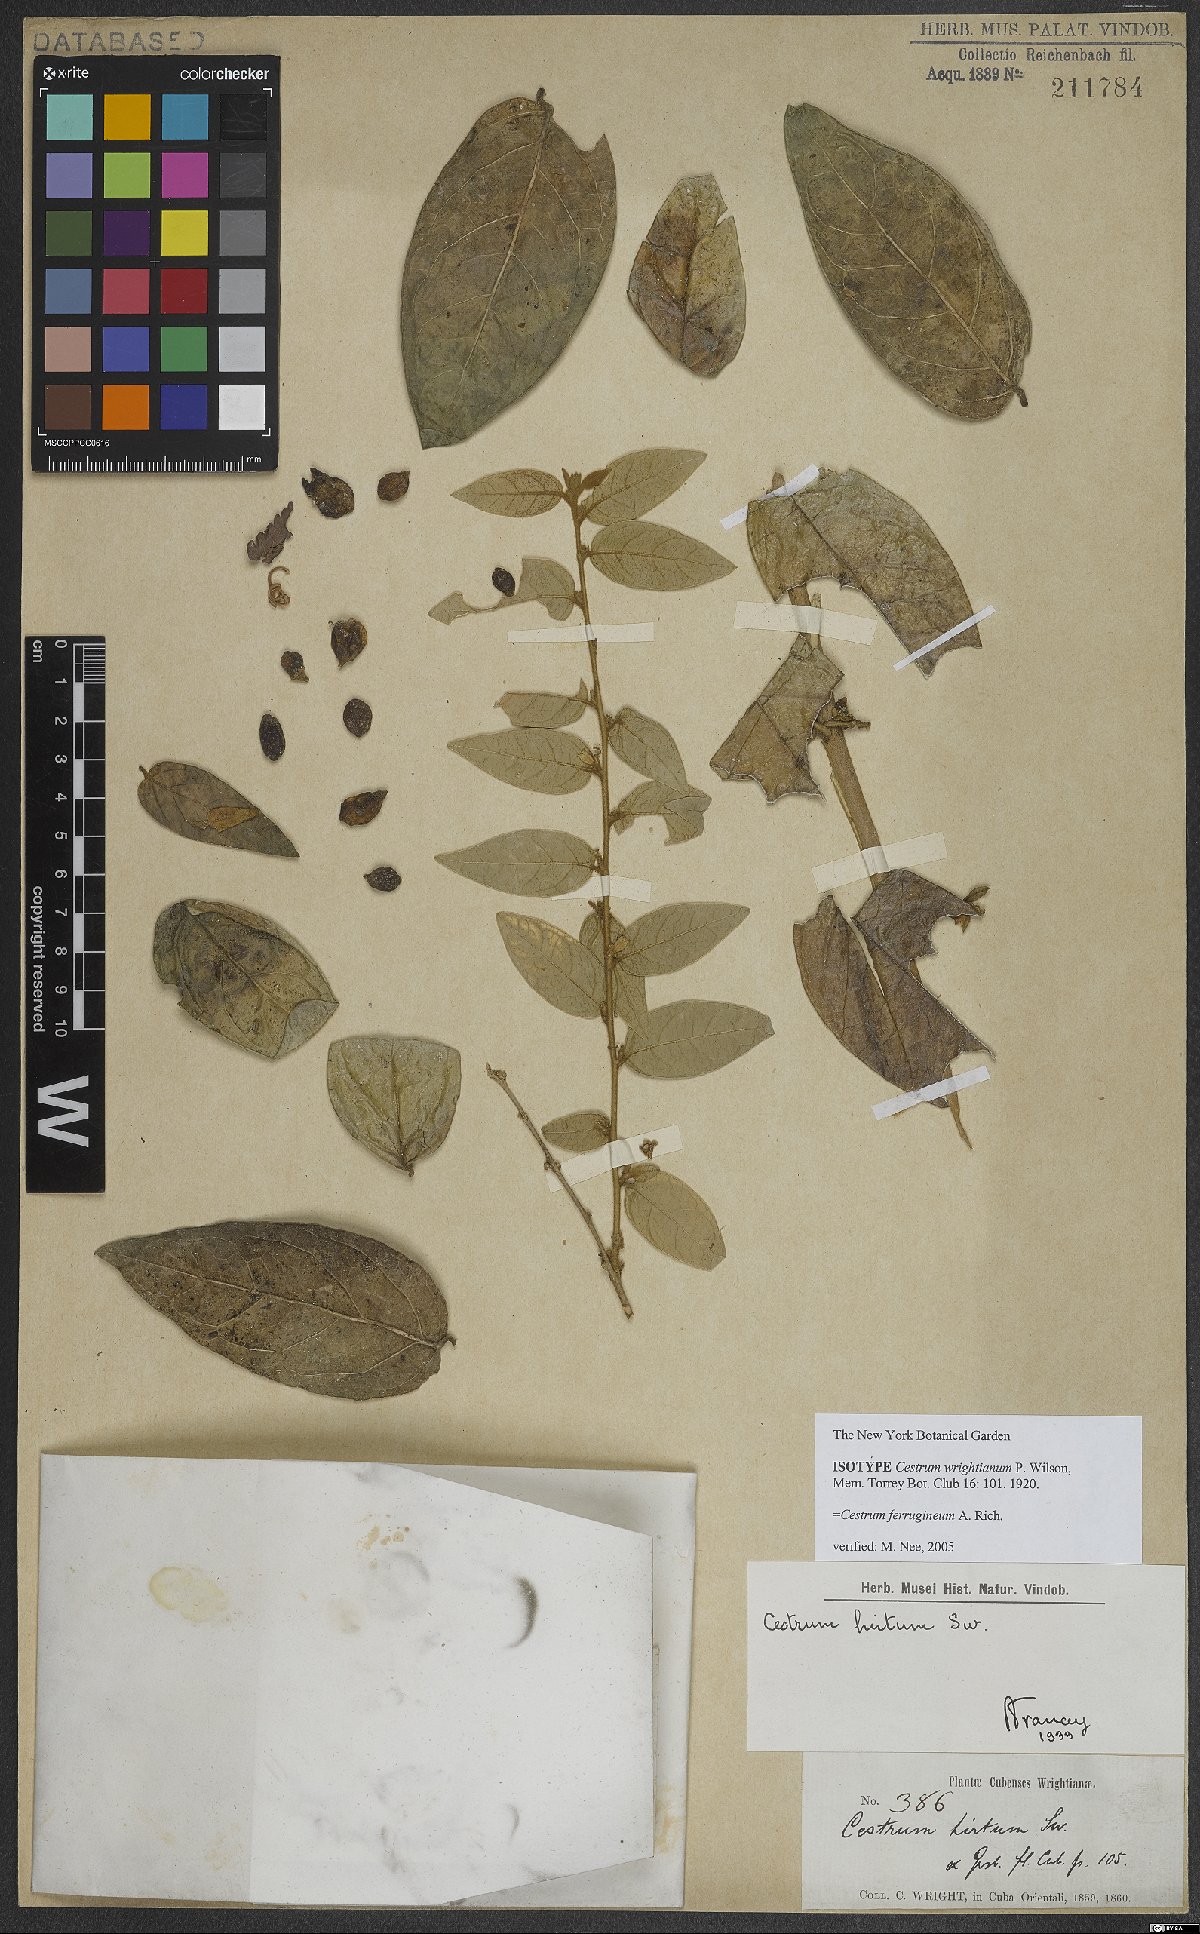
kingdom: Plantae
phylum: Tracheophyta
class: Magnoliopsida
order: Solanales
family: Solanaceae
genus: Cestrum
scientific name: Cestrum ferrugineum
